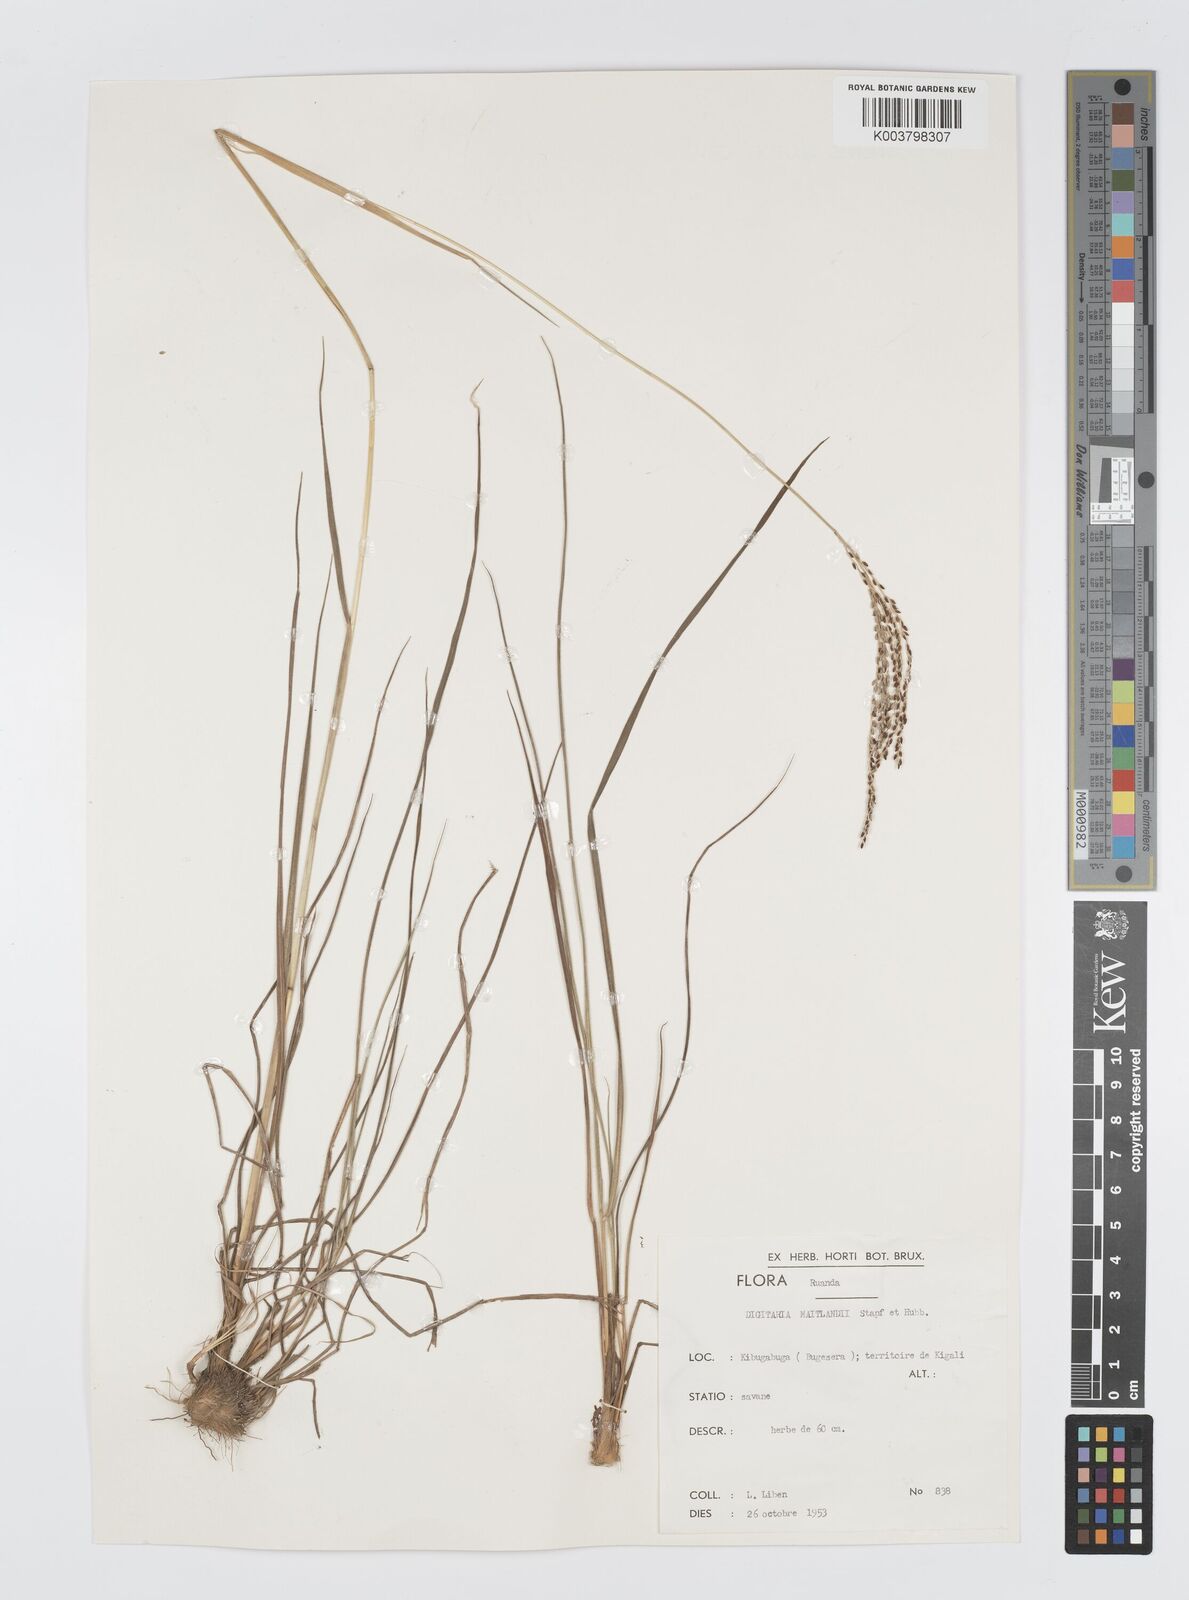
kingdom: Plantae
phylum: Tracheophyta
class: Liliopsida
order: Poales
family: Poaceae
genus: Digitaria
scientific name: Digitaria maitlandii
